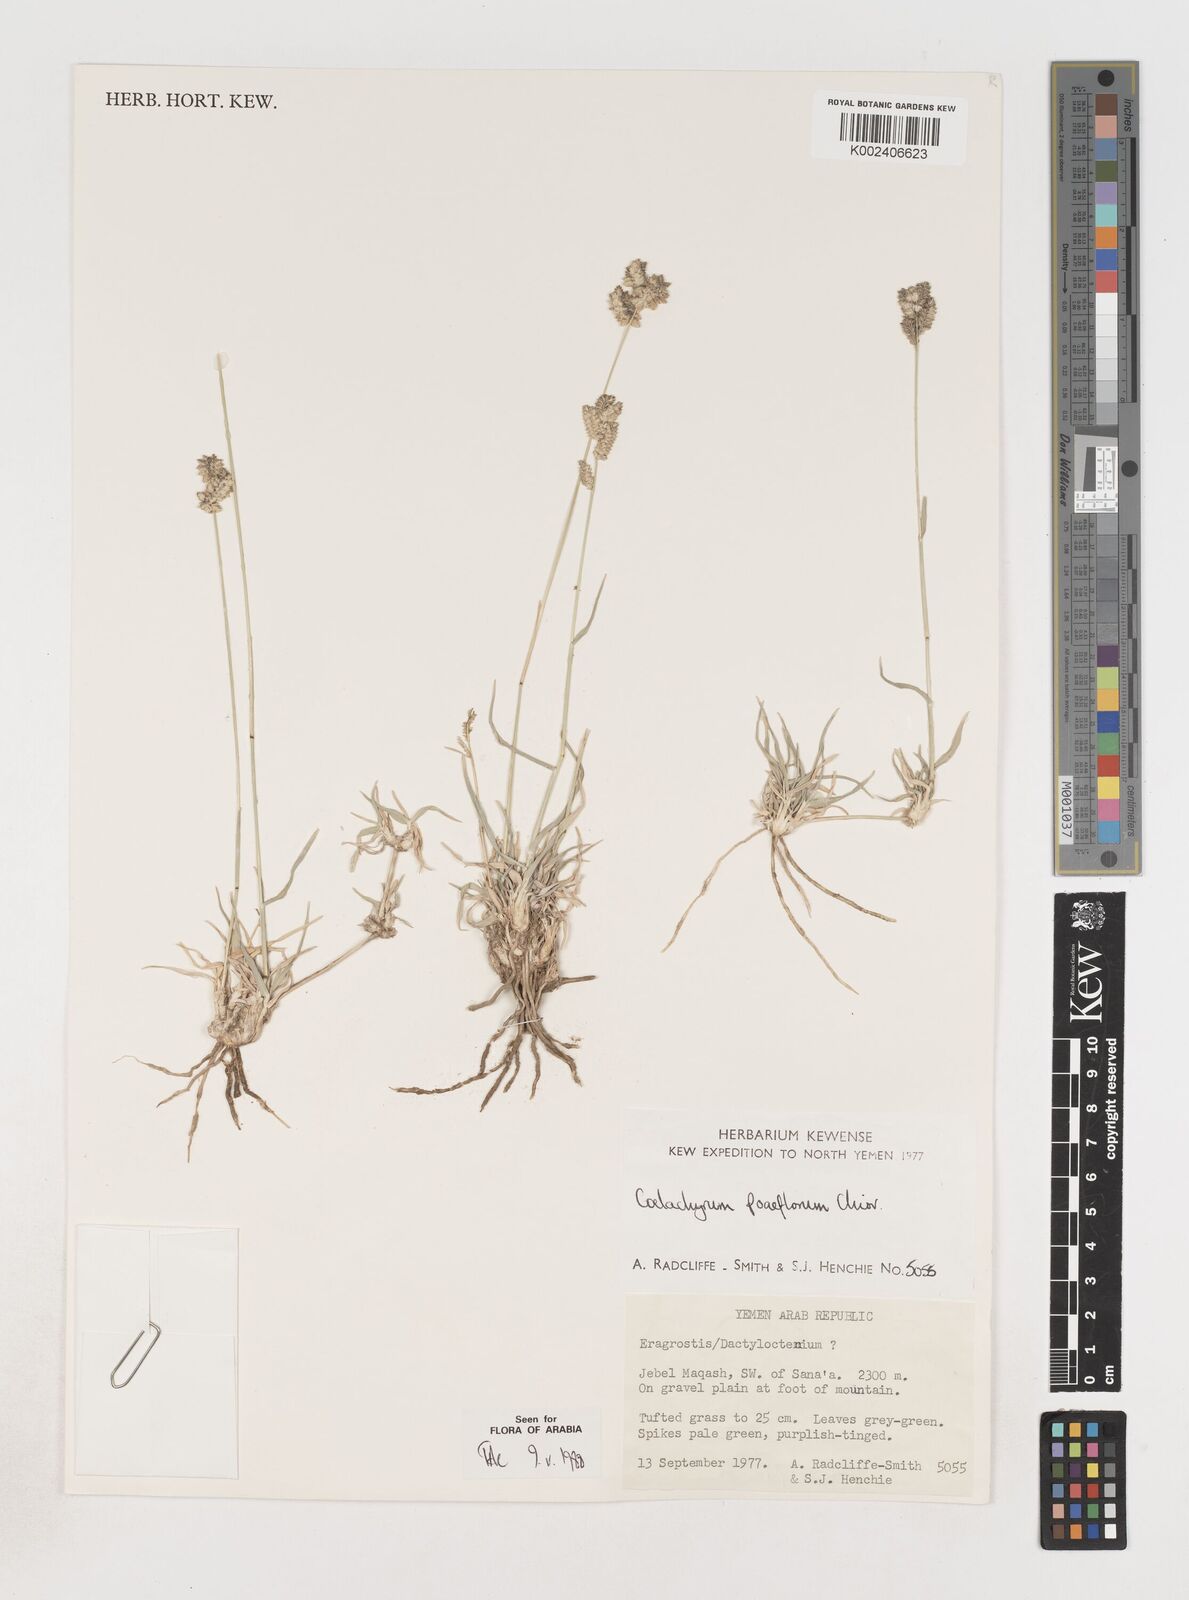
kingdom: Plantae
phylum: Tracheophyta
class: Liliopsida
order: Poales
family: Poaceae
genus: Coelachyrum
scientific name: Coelachyrum poiflorum
